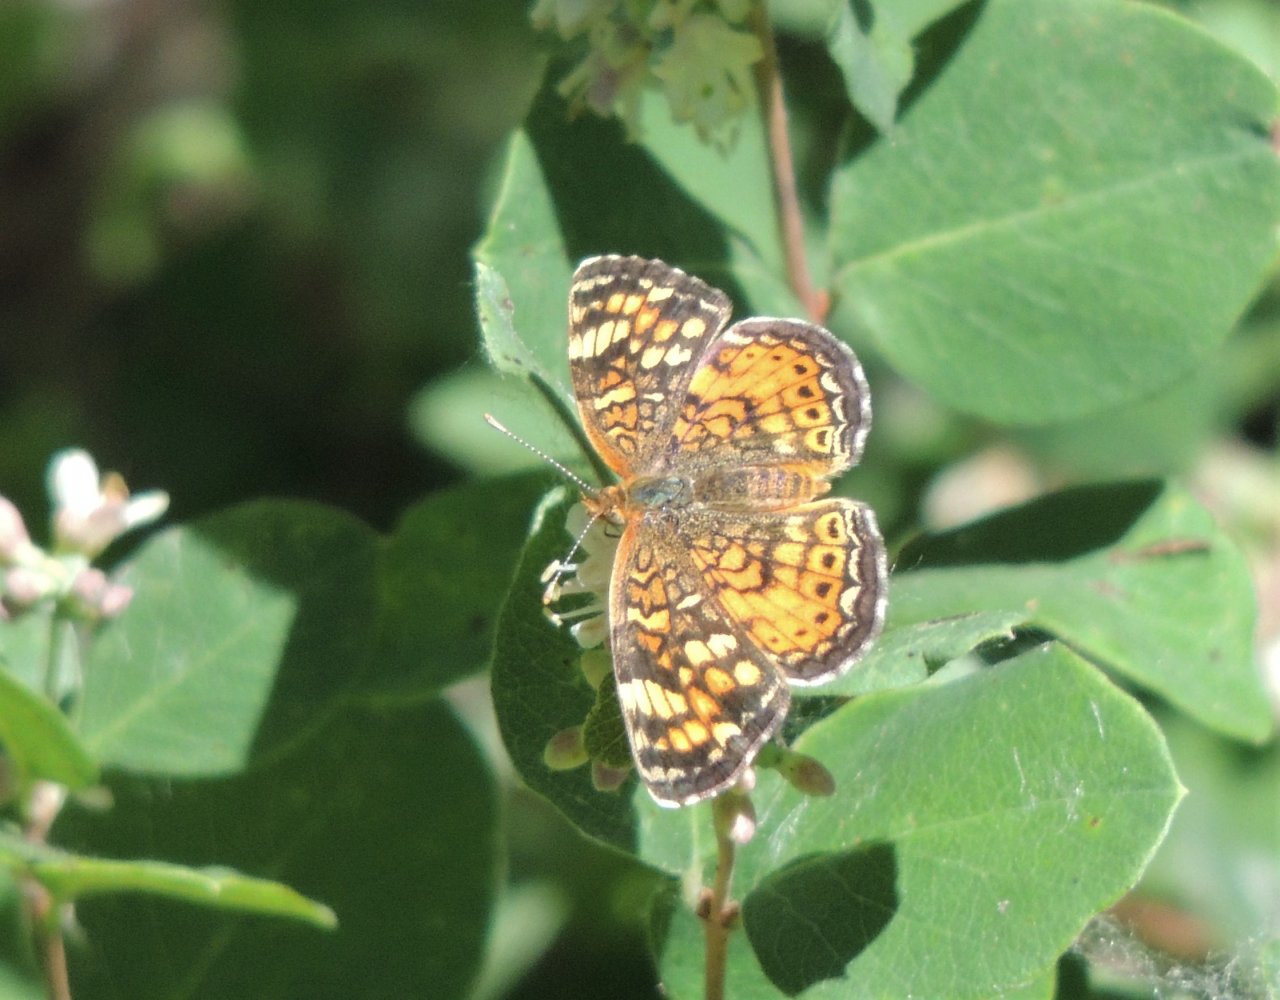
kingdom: Animalia
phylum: Arthropoda
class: Insecta
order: Lepidoptera
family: Nymphalidae
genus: Phyciodes
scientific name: Phyciodes tharos
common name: Field Crescent
